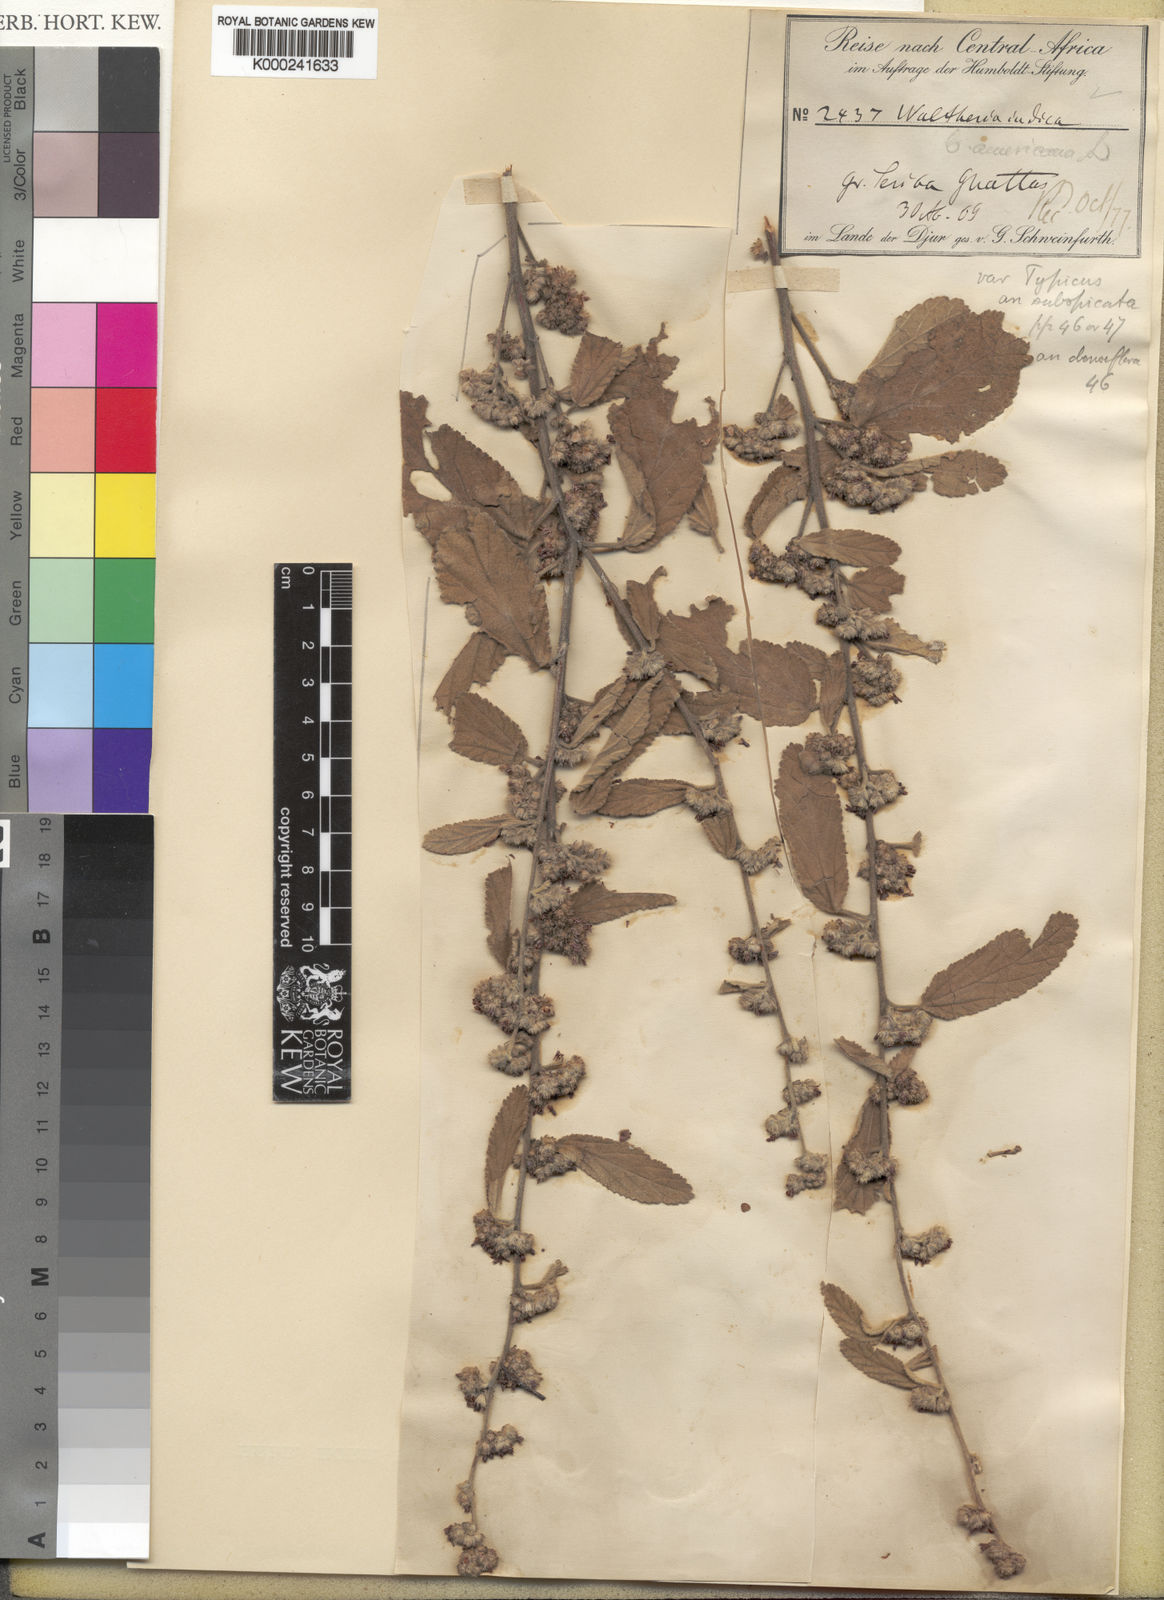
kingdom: Plantae
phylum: Tracheophyta
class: Magnoliopsida
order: Malvales
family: Malvaceae
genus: Waltheria
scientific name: Waltheria indica
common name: Leather-coat
